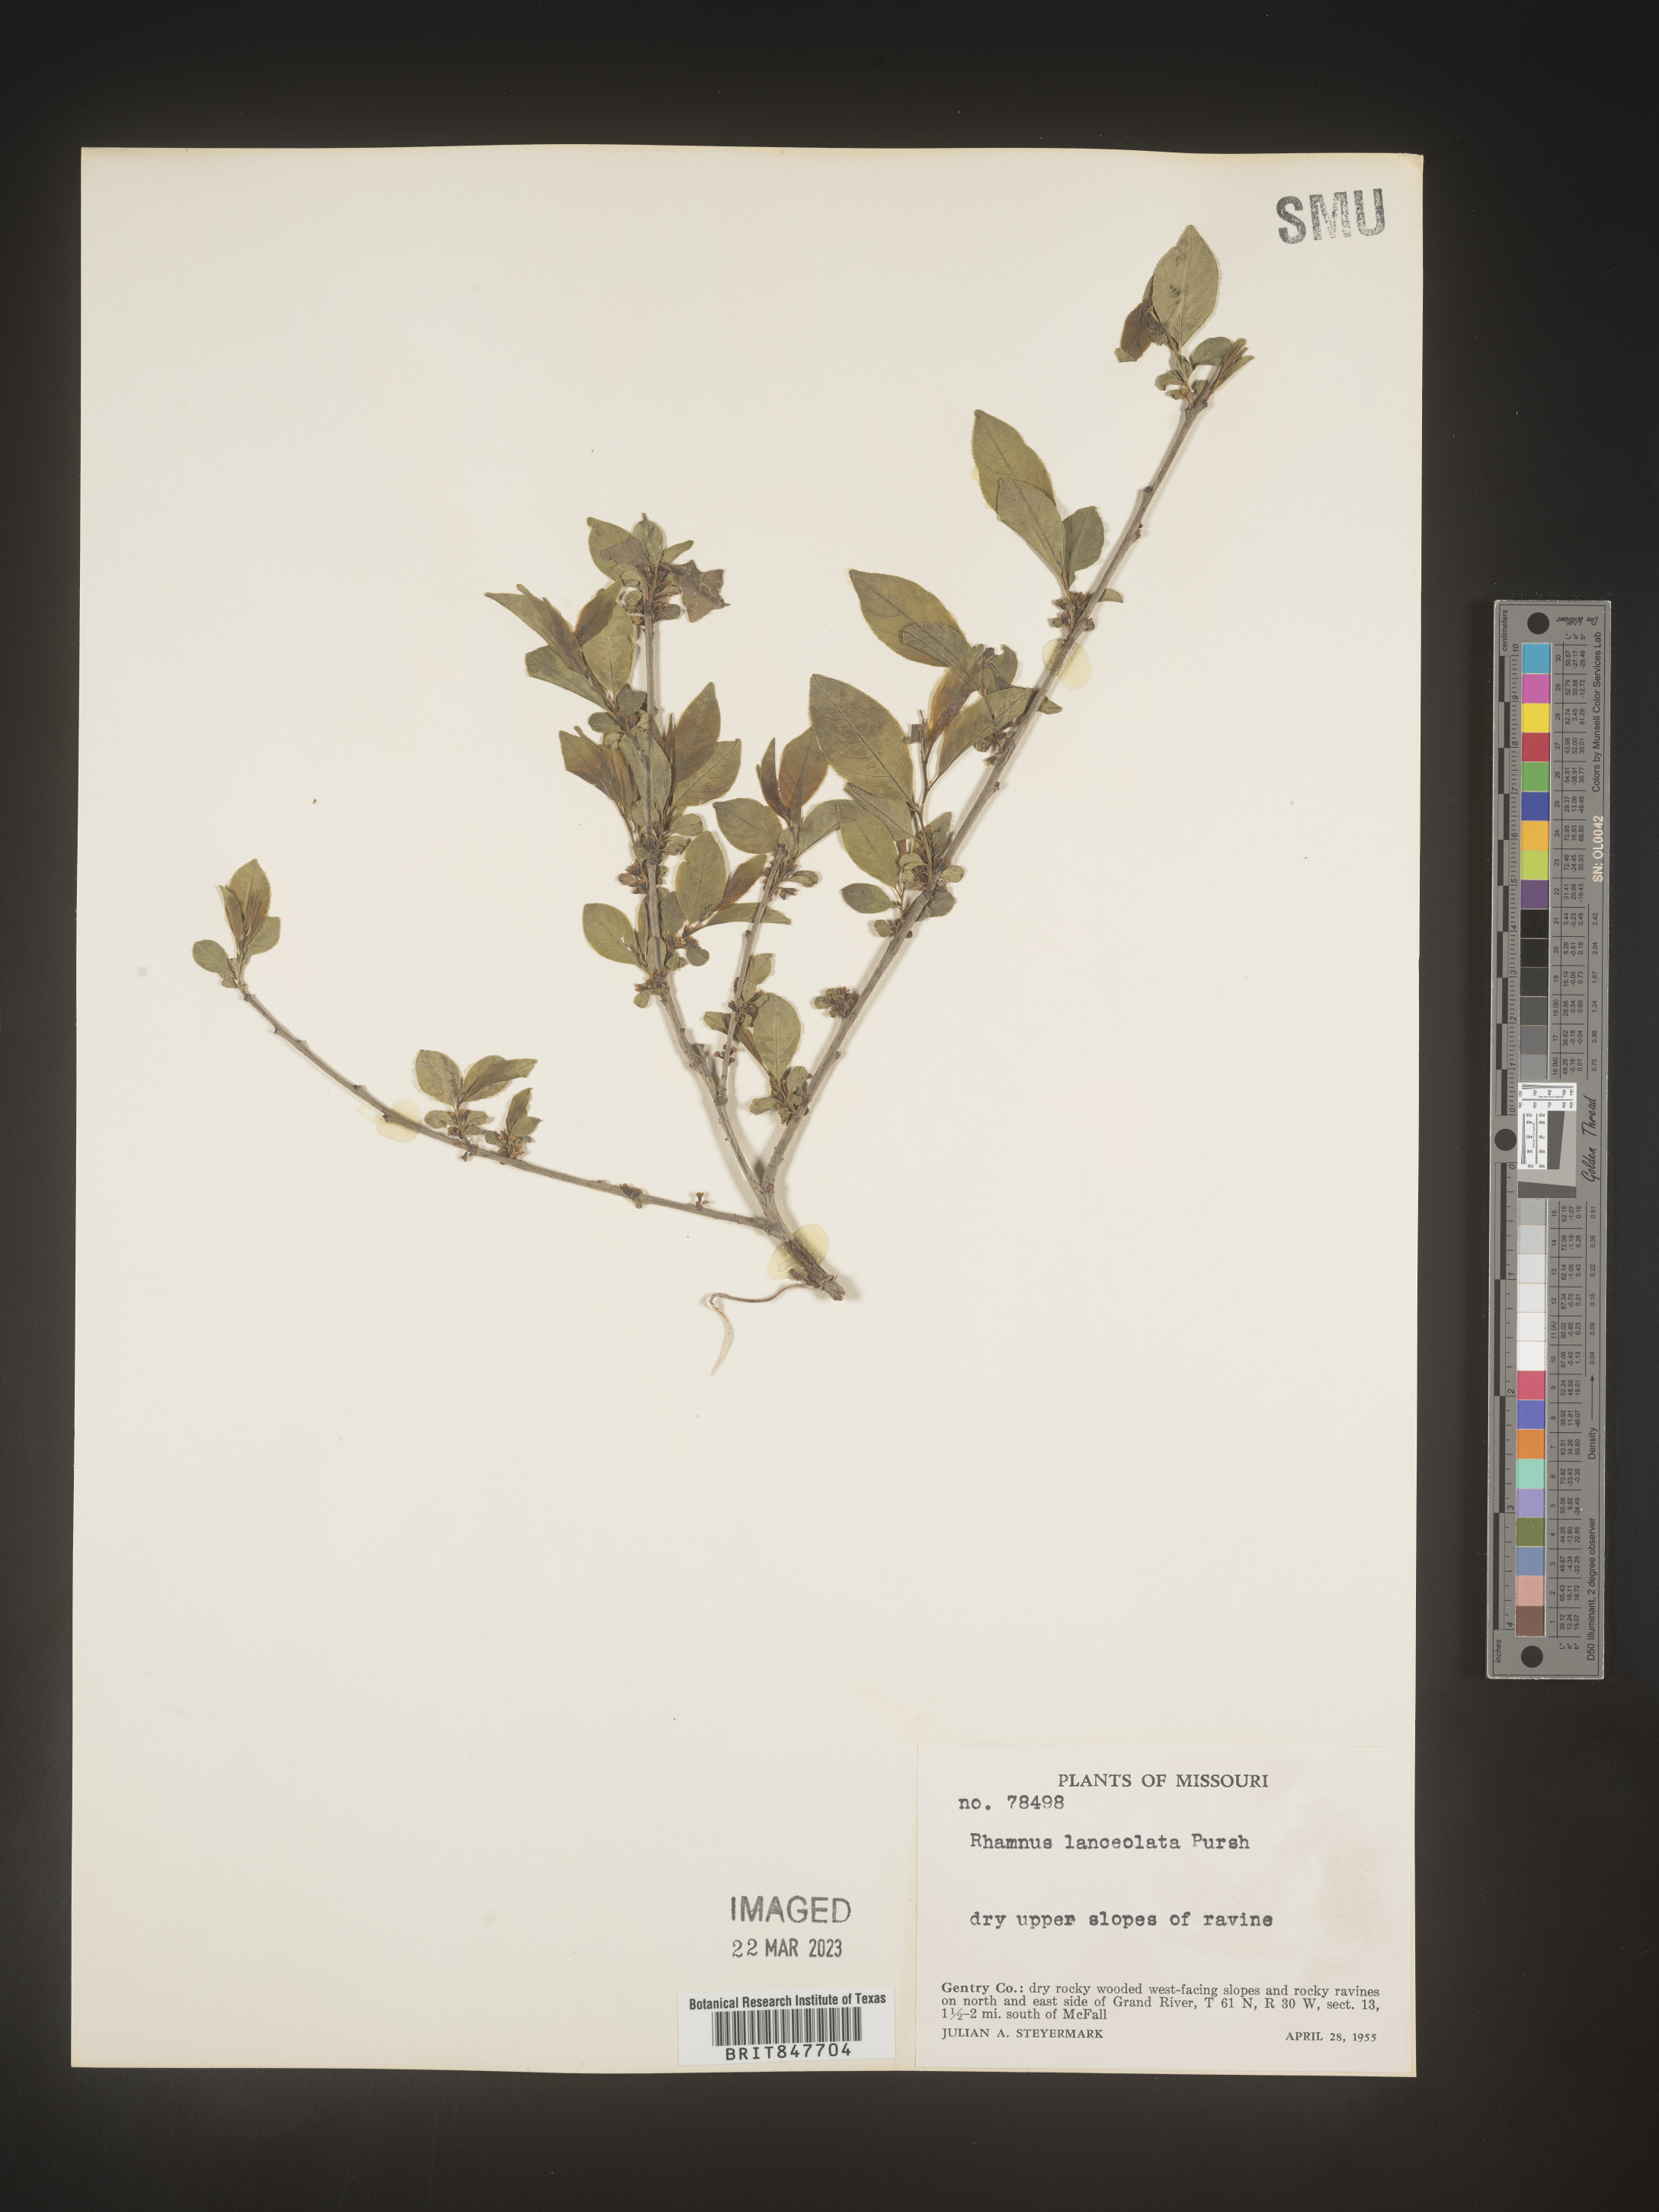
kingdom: Plantae
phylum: Tracheophyta
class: Magnoliopsida
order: Rosales
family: Rhamnaceae
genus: Endotropis
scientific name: Endotropis lanceolata
